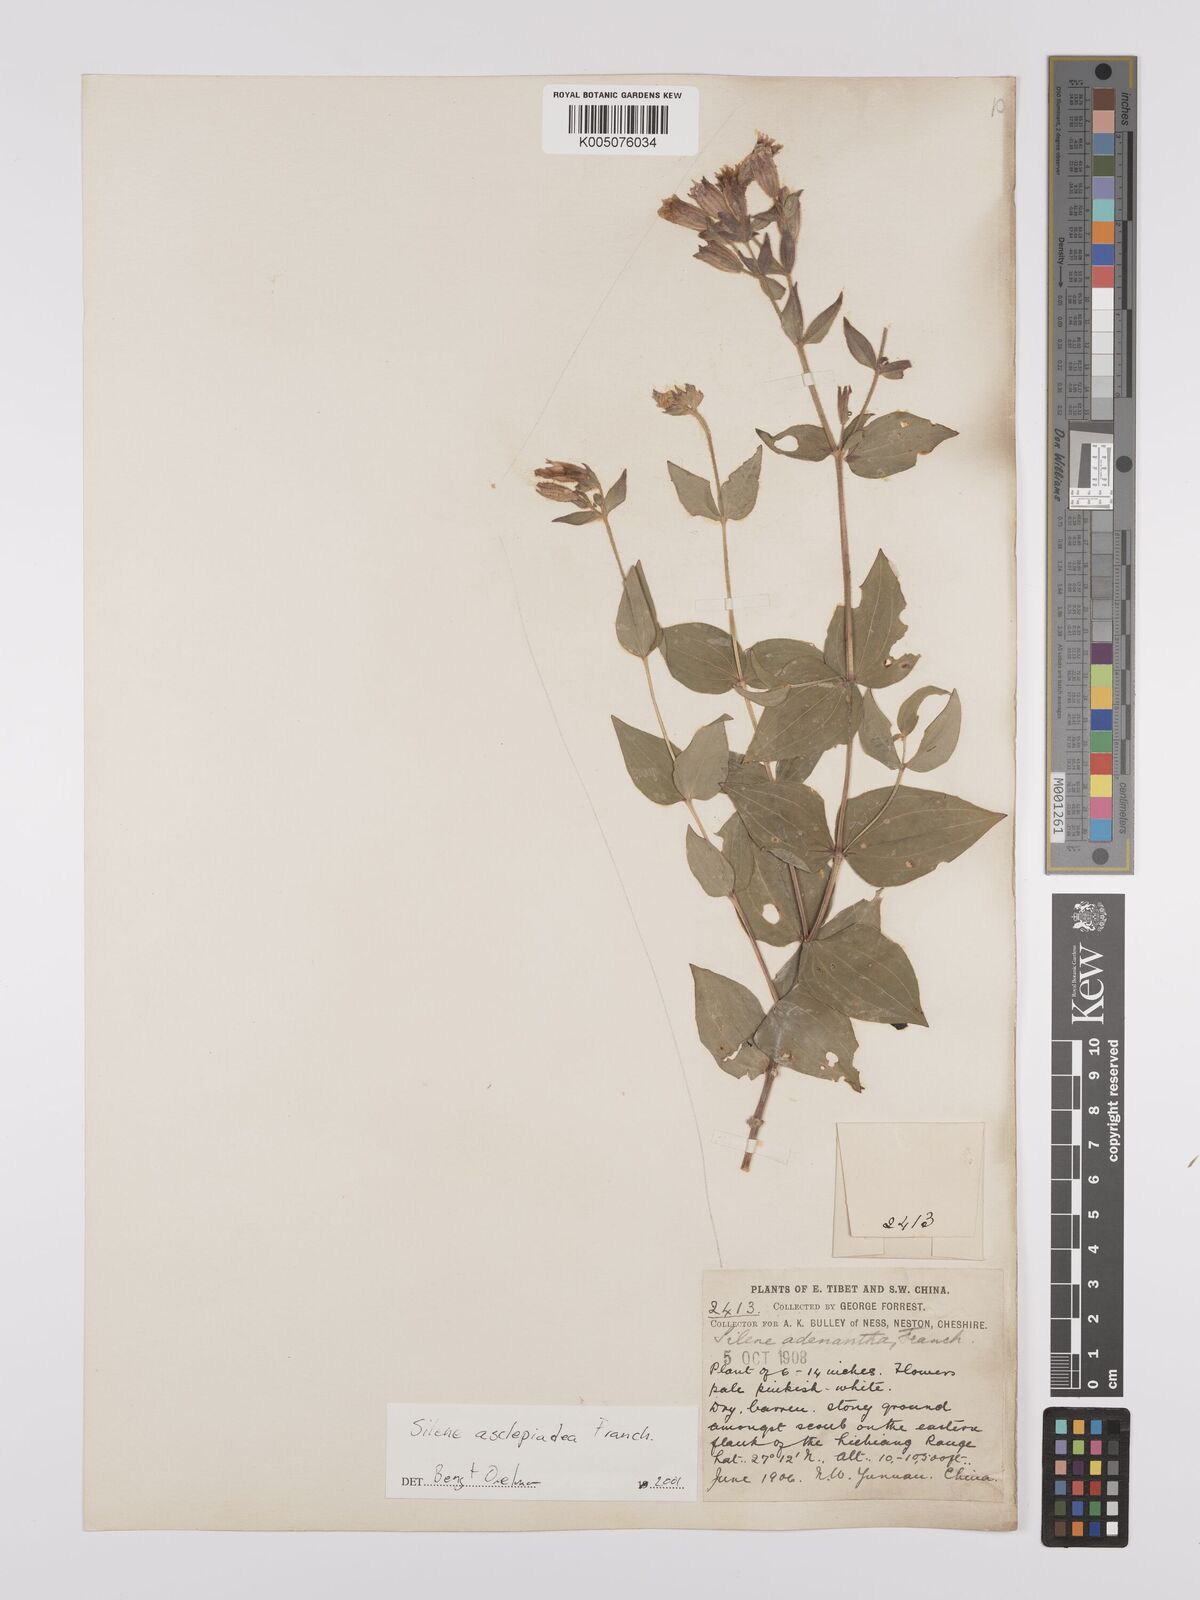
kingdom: Plantae
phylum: Tracheophyta
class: Magnoliopsida
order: Caryophyllales
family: Caryophyllaceae
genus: Silene
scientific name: Silene asclepiadea
